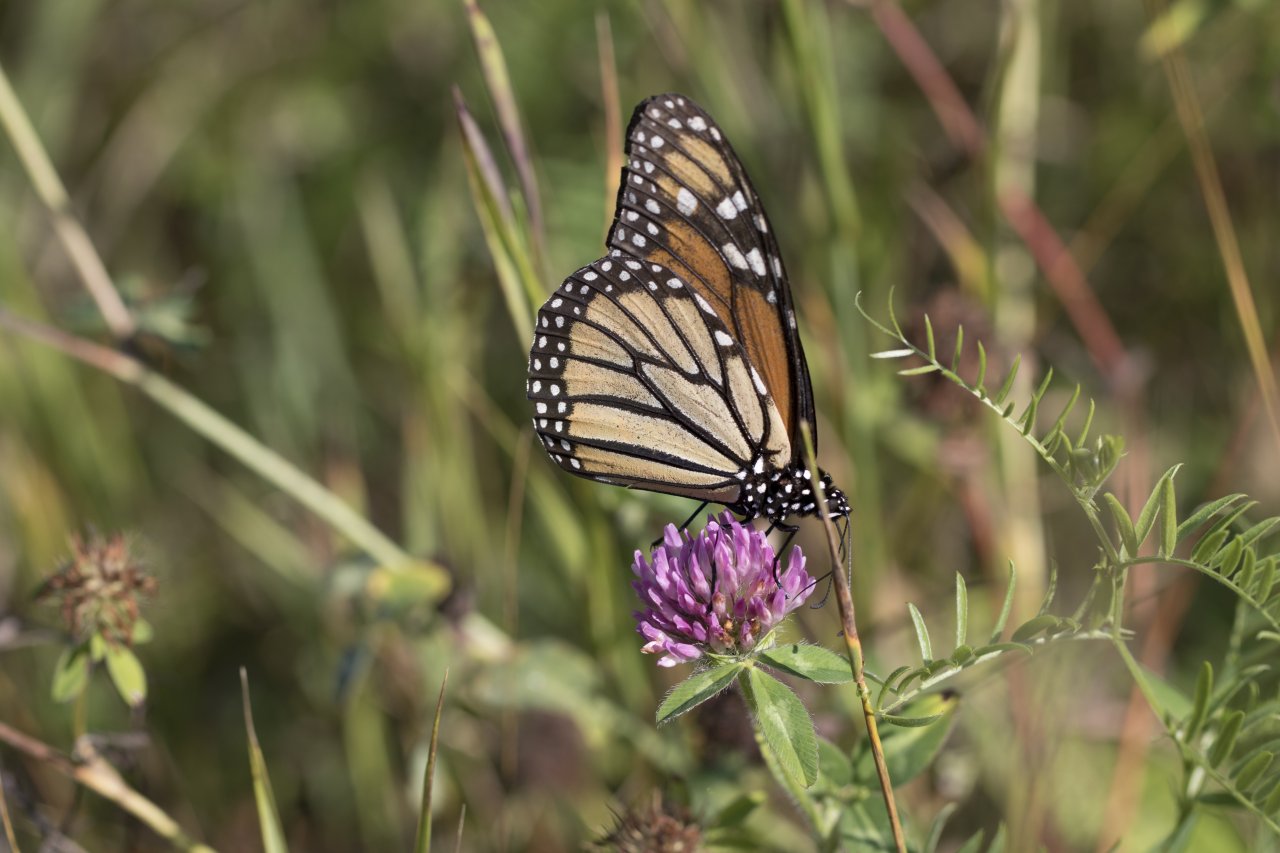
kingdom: Animalia
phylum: Arthropoda
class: Insecta
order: Lepidoptera
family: Nymphalidae
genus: Danaus
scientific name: Danaus plexippus
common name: Monarch
